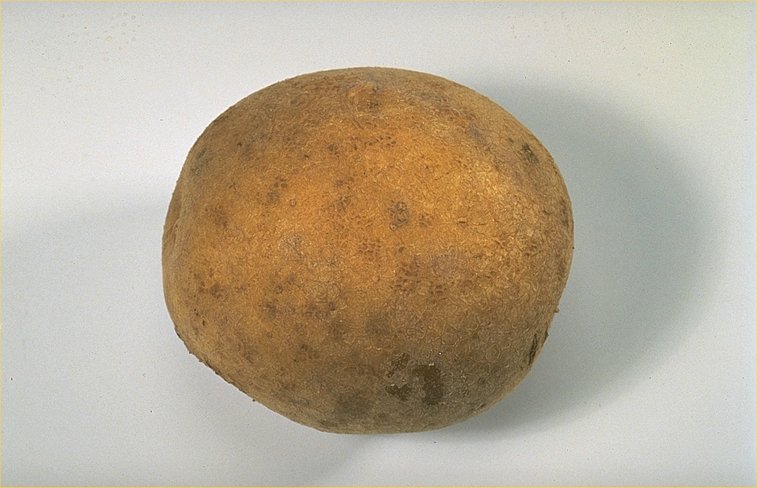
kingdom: Plantae
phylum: Tracheophyta
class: Magnoliopsida
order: Solanales
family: Solanaceae
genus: Solanum
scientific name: Solanum tuberosum
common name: Potato
